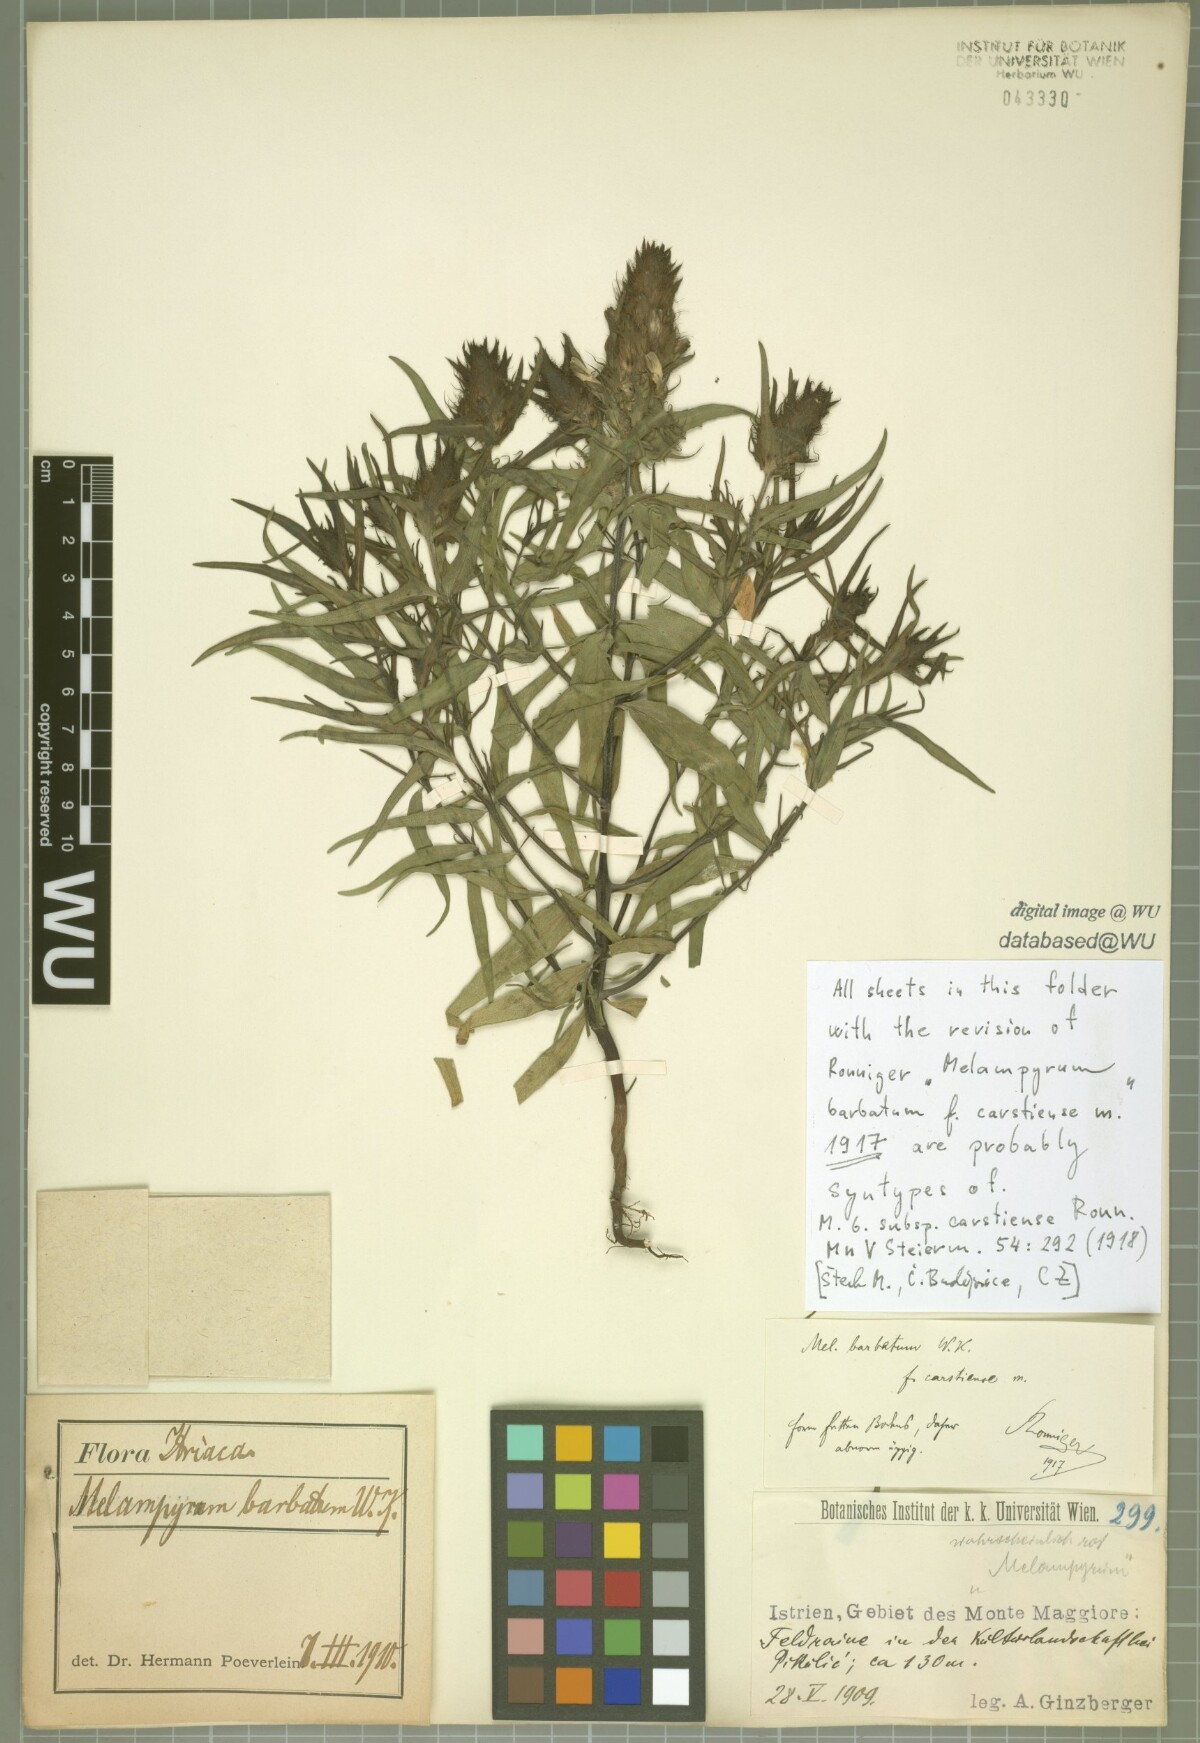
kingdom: Plantae
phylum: Tracheophyta
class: Magnoliopsida
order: Lamiales
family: Orobanchaceae
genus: Melampyrum
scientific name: Melampyrum barbatum
